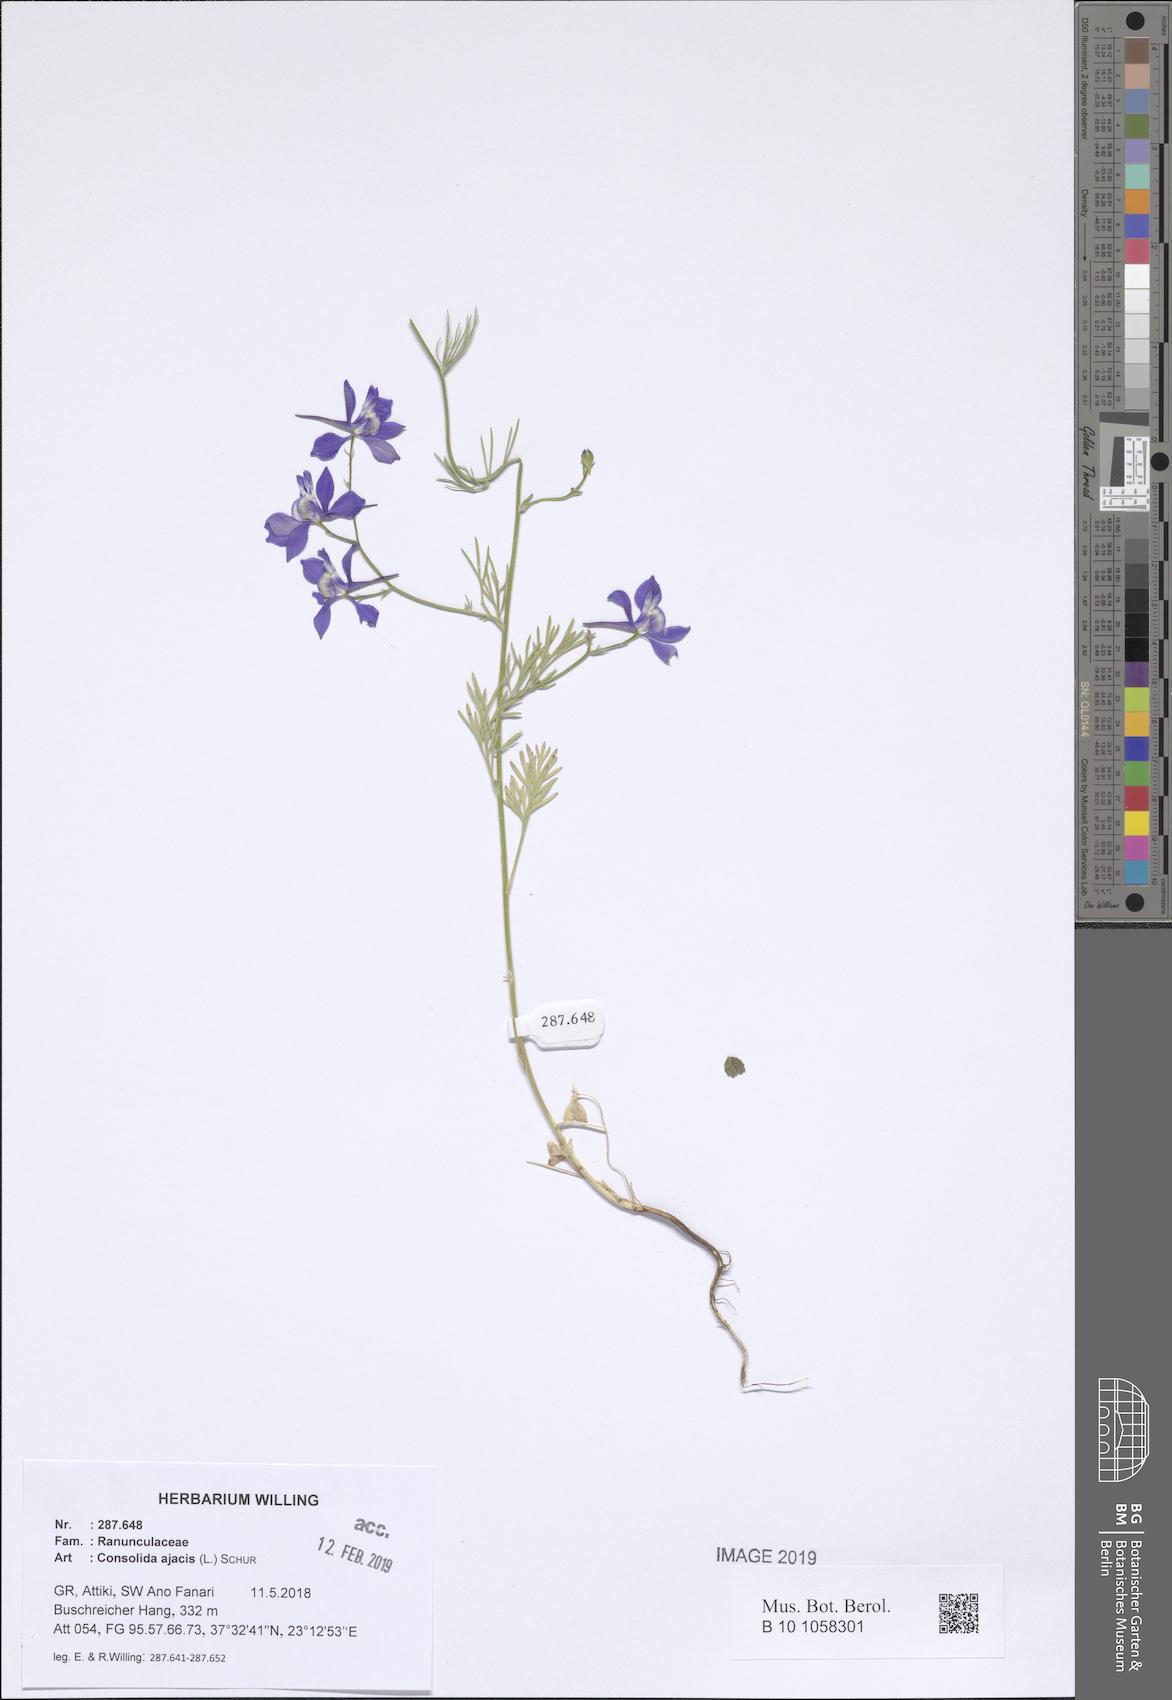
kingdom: Plantae
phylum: Tracheophyta
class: Magnoliopsida
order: Ranunculales
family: Ranunculaceae
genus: Delphinium
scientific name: Delphinium ajacis
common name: Doubtful knight's-spur
